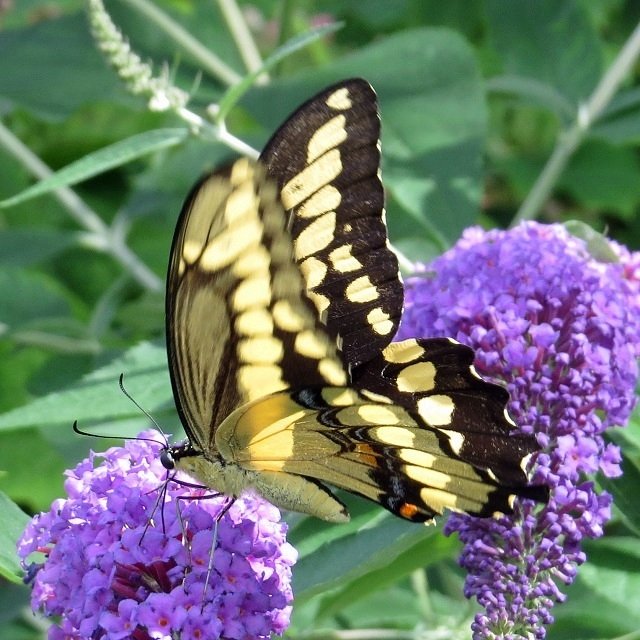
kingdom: Animalia
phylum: Arthropoda
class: Insecta
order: Lepidoptera
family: Papilionidae
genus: Papilio
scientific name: Papilio cresphontes
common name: Eastern Giant Swallowtail
